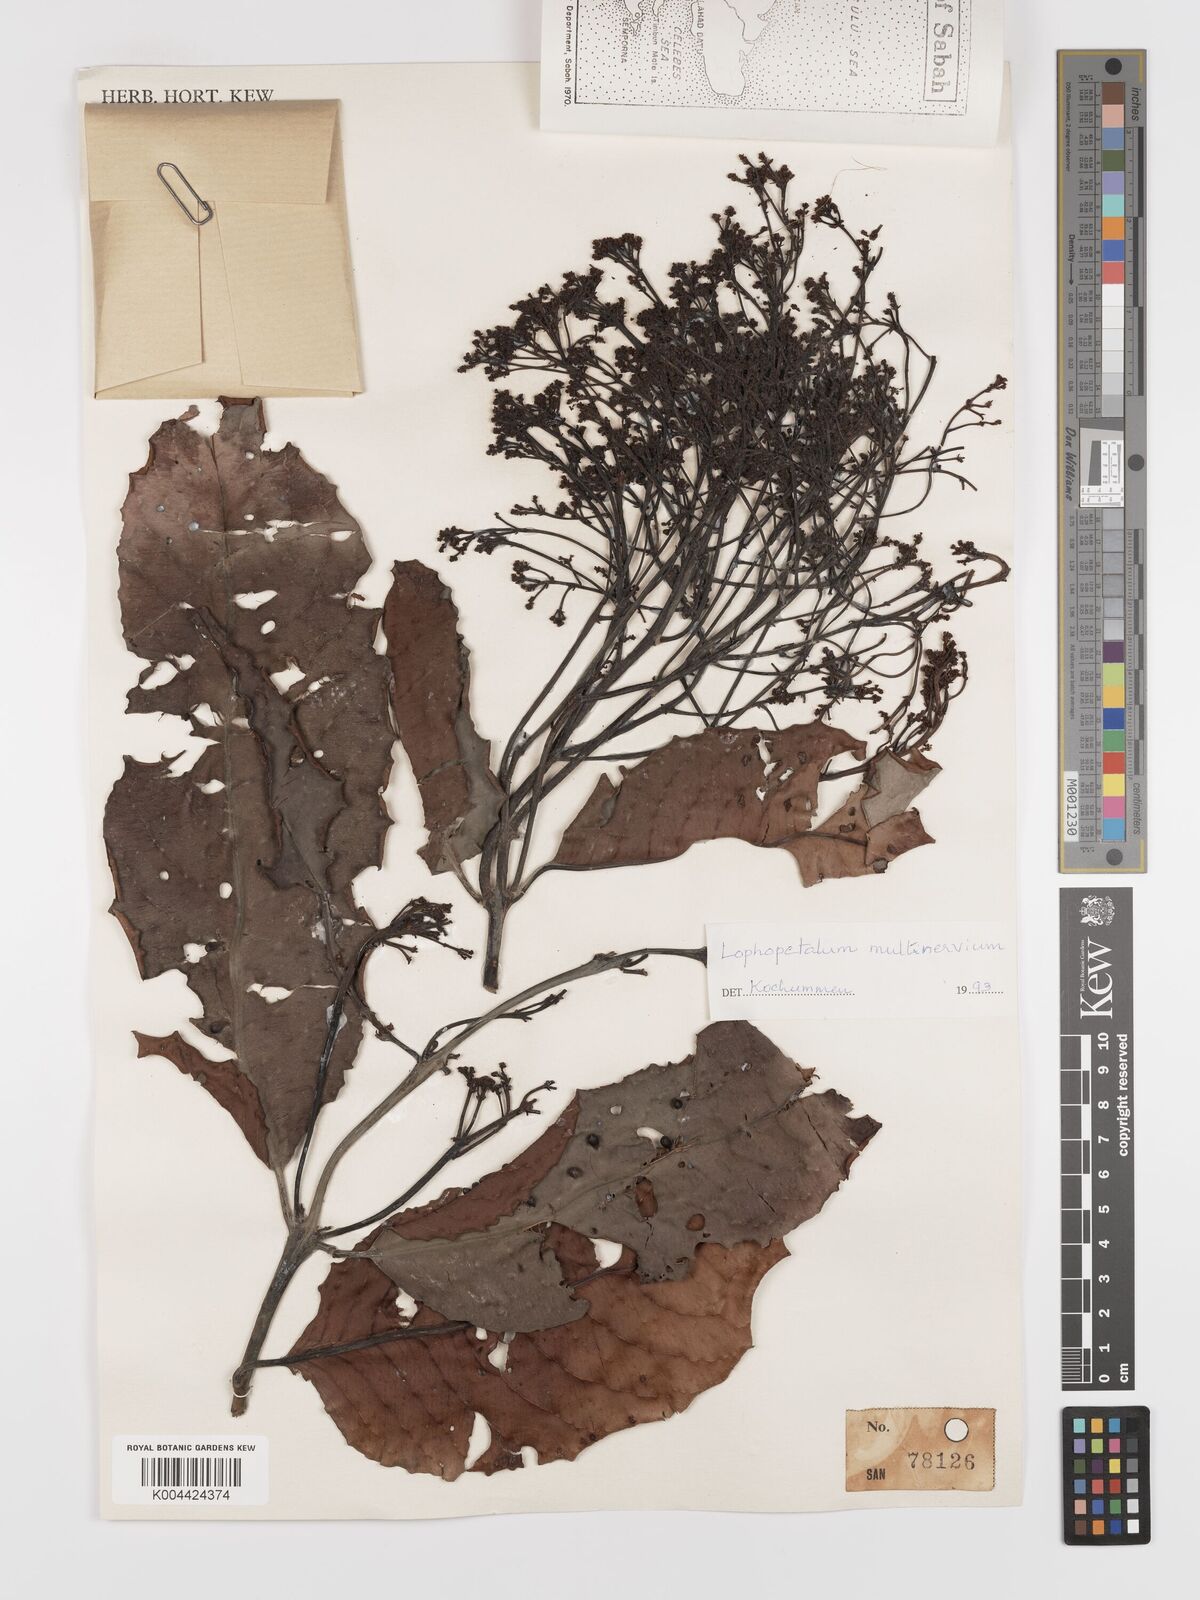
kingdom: Plantae
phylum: Tracheophyta
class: Magnoliopsida
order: Celastrales
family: Celastraceae
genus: Lophopetalum
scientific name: Lophopetalum multinervium
